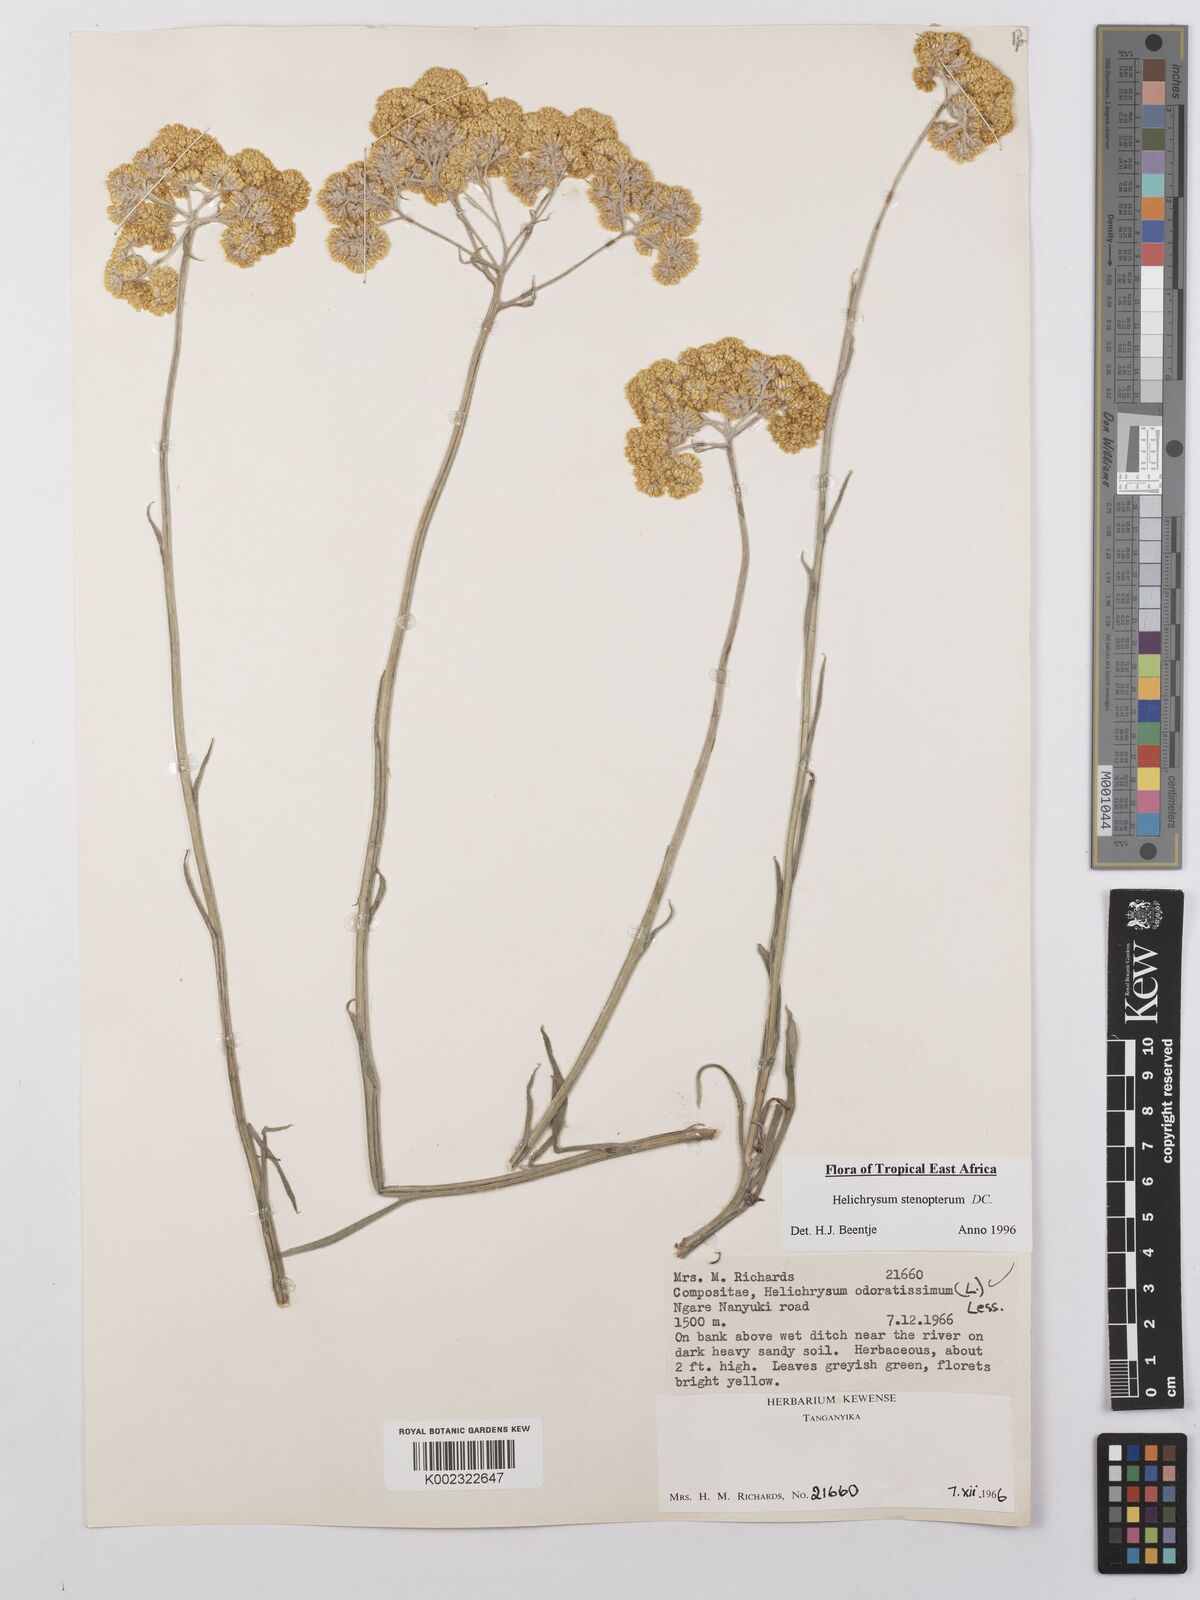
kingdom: Plantae
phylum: Tracheophyta
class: Magnoliopsida
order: Asterales
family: Asteraceae
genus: Helichrysum
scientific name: Helichrysum stenopterum
